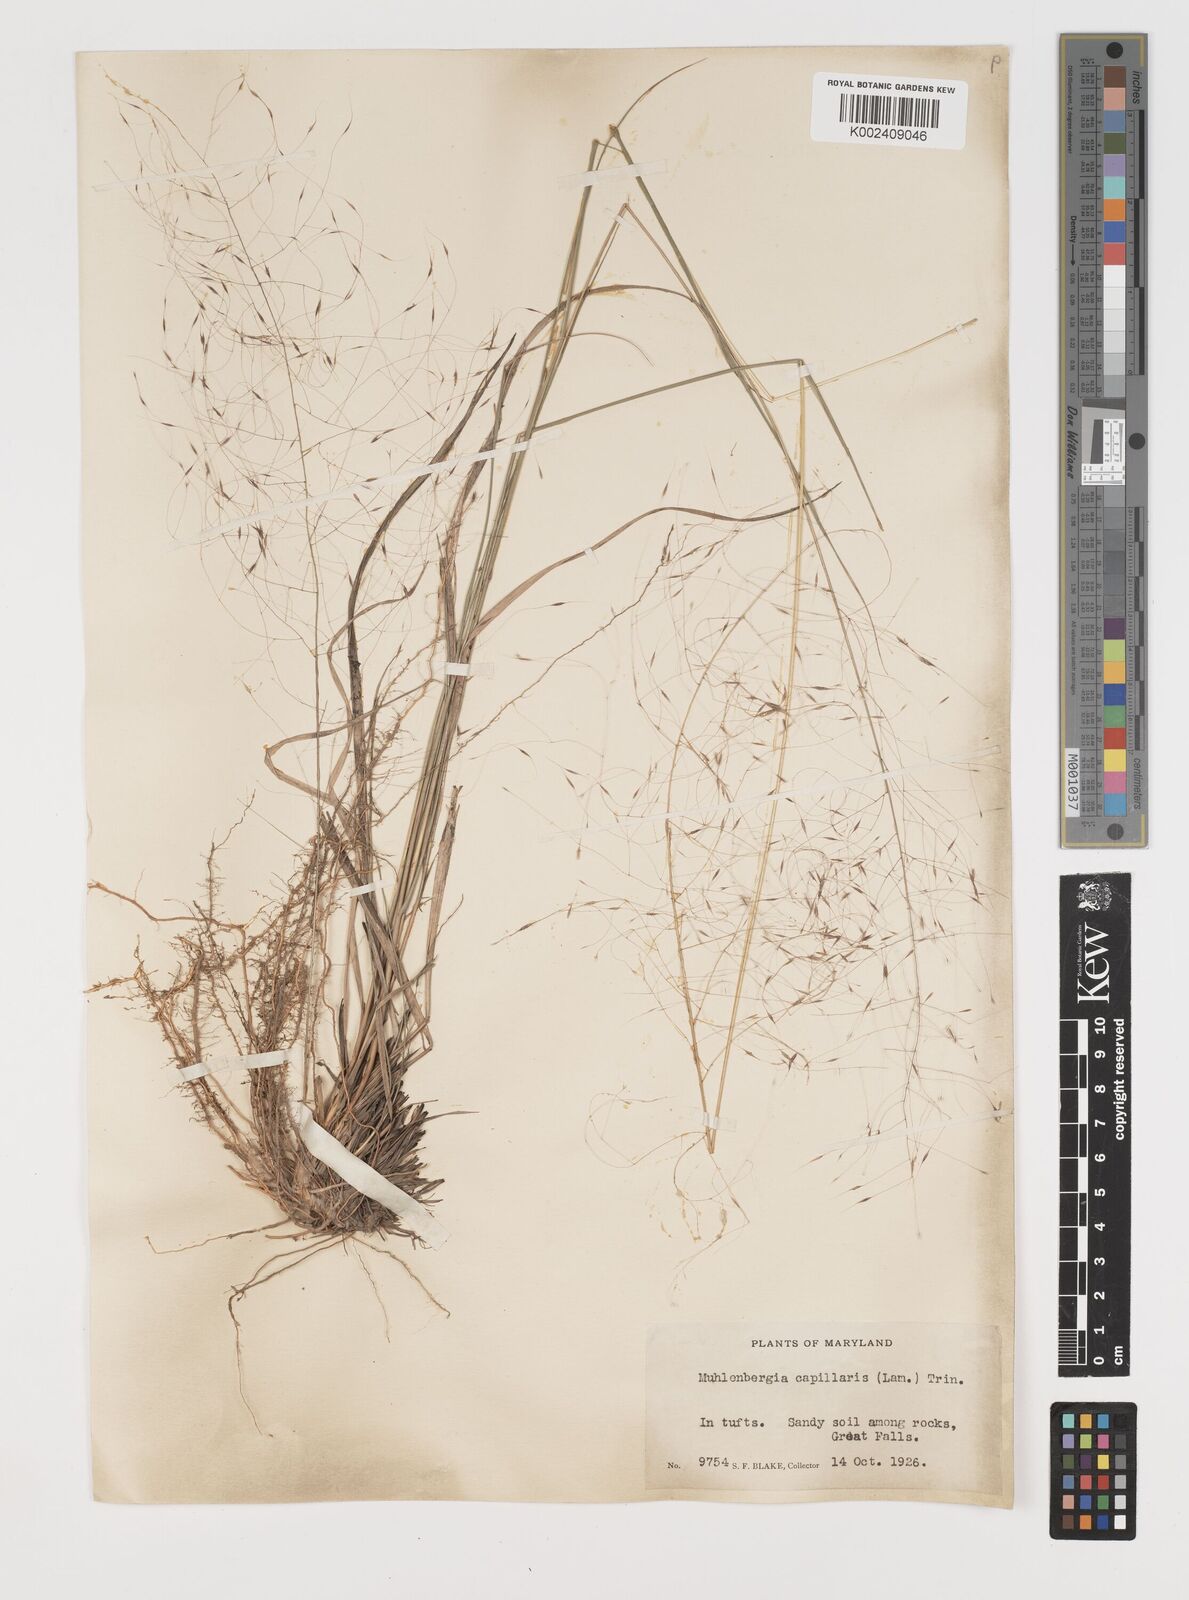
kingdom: Plantae
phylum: Tracheophyta
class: Liliopsida
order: Poales
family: Poaceae
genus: Muhlenbergia
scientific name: Muhlenbergia capillaris
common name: Purple grass
